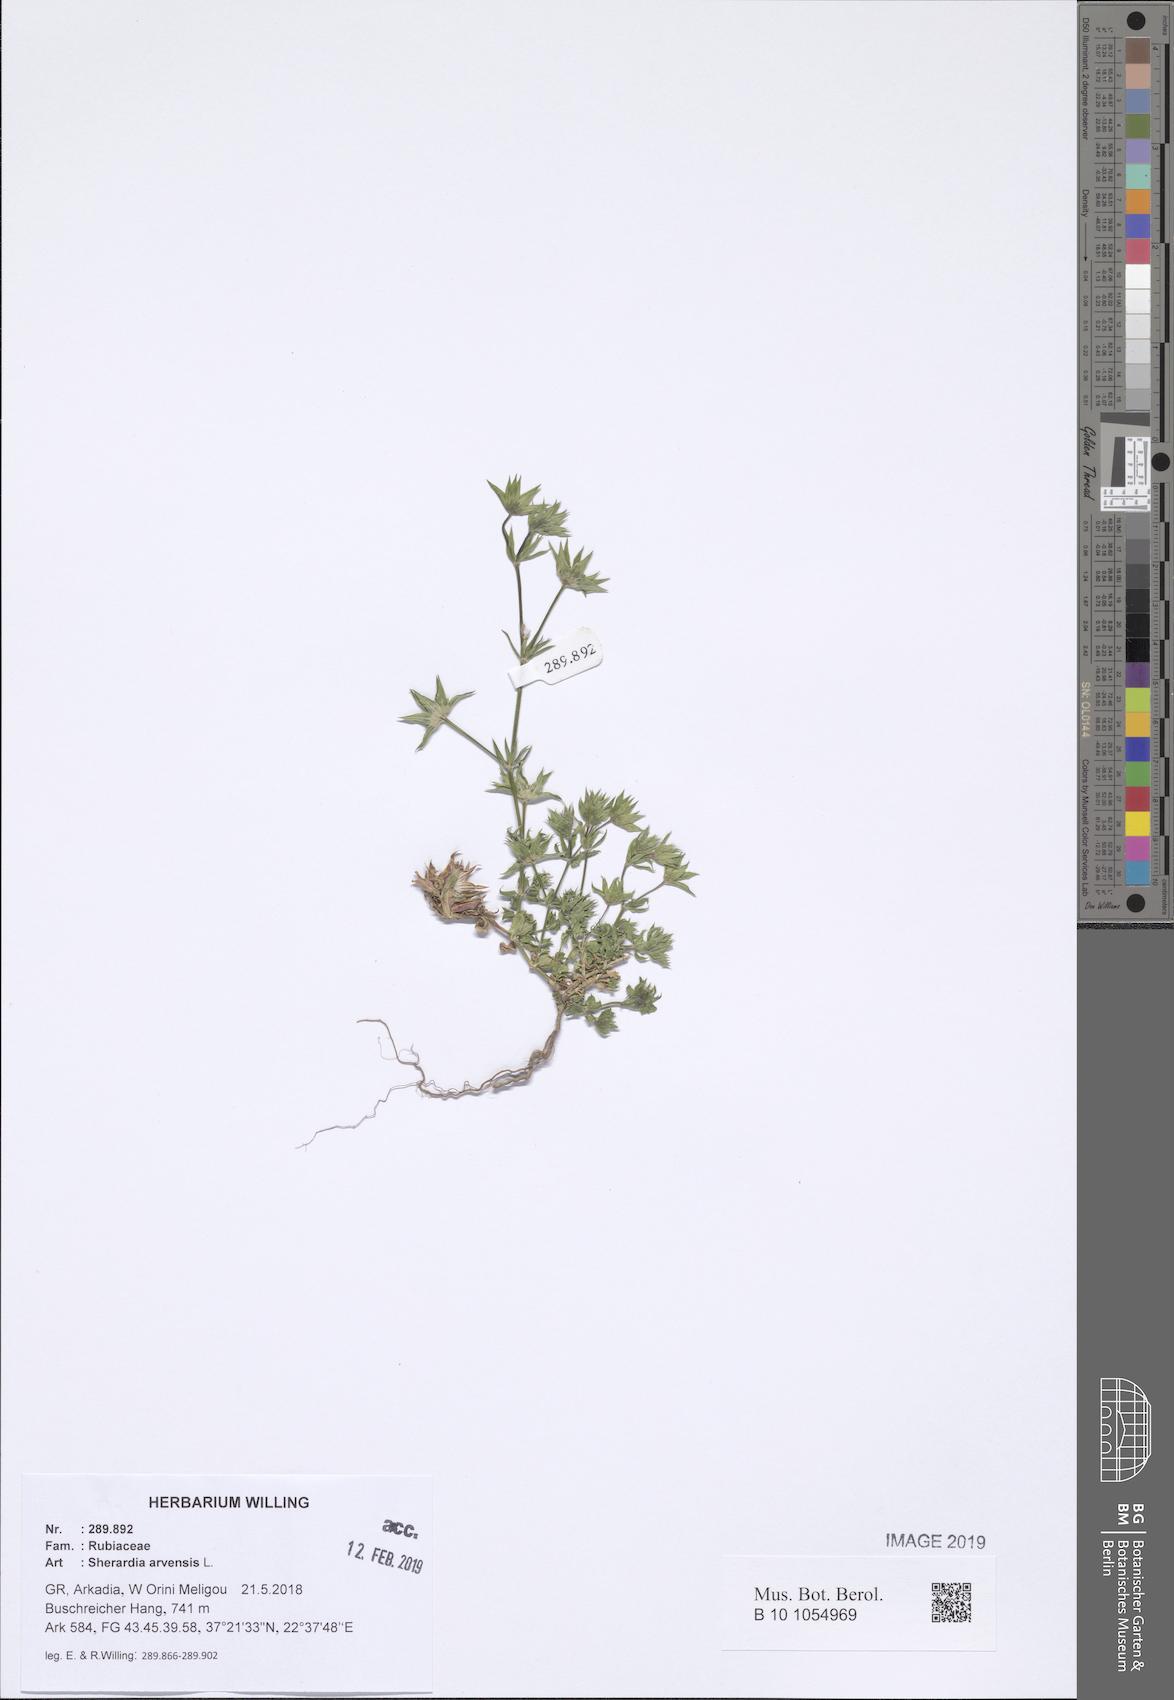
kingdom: Plantae
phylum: Tracheophyta
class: Magnoliopsida
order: Gentianales
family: Rubiaceae
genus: Sherardia
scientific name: Sherardia arvensis
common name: Field madder
